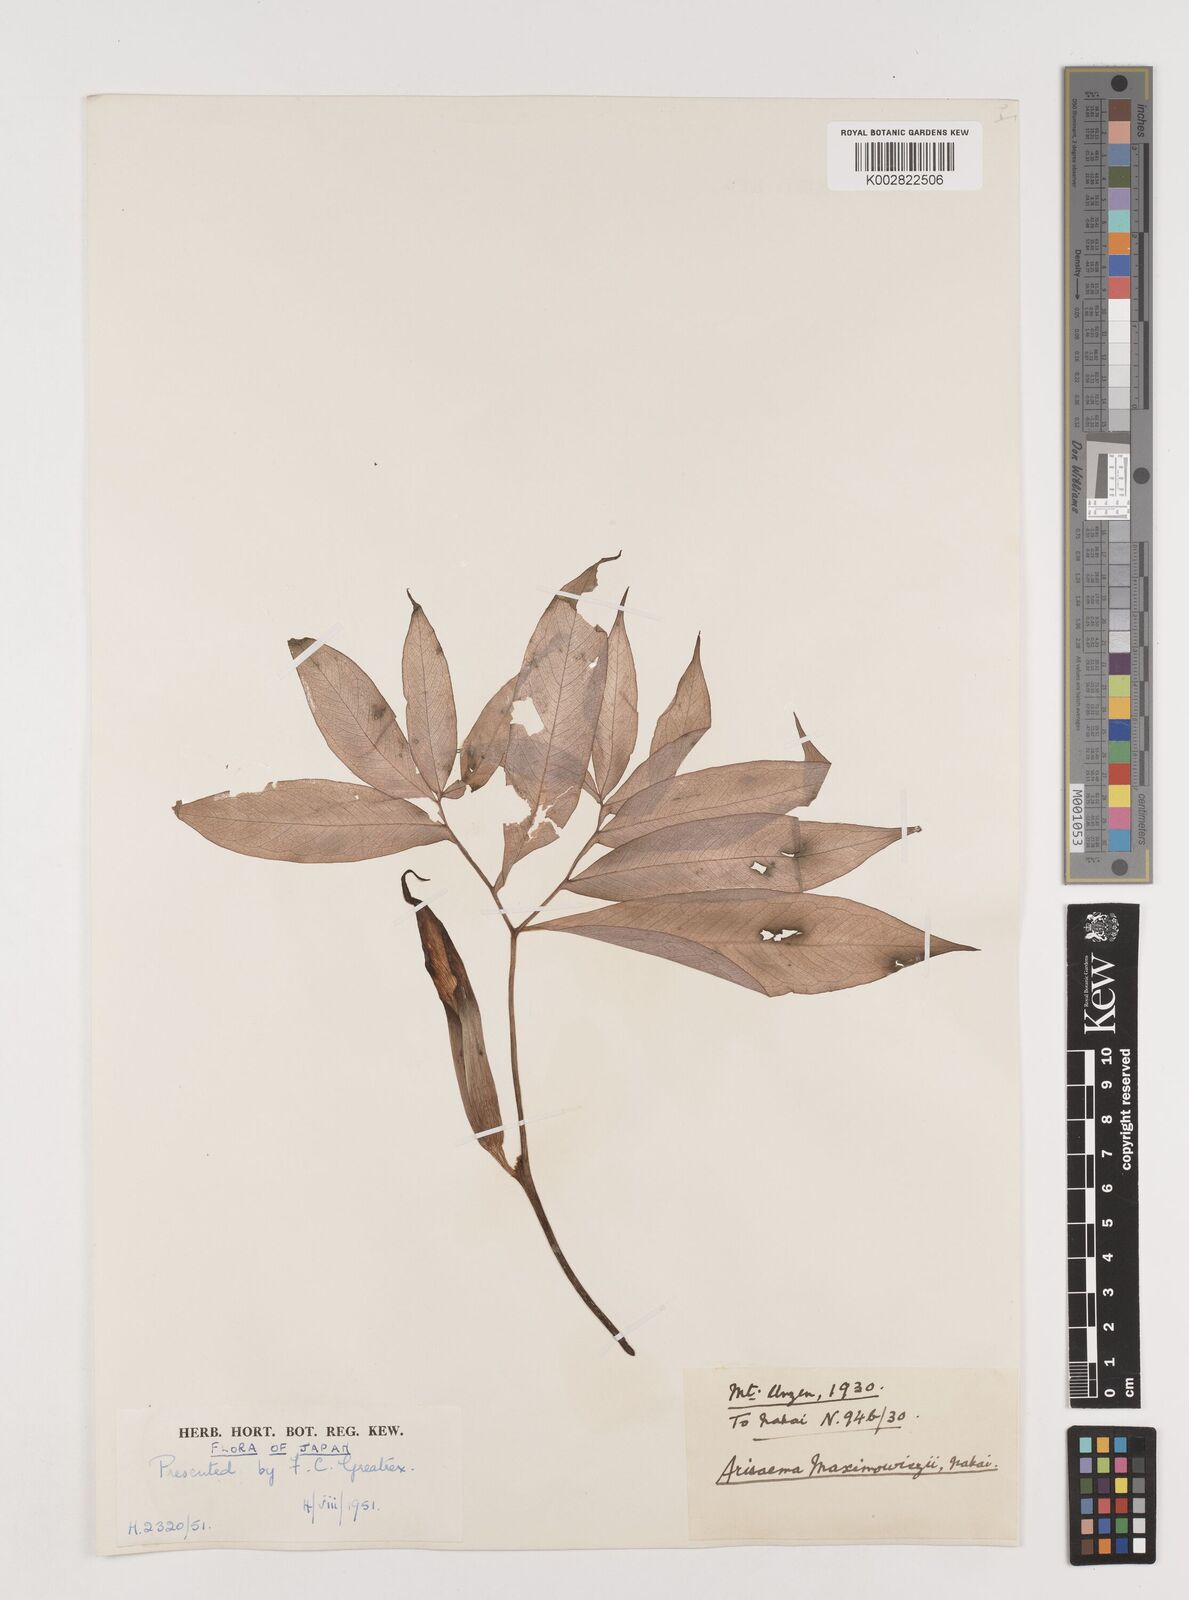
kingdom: Plantae
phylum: Tracheophyta
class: Liliopsida
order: Alismatales
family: Araceae
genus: Arisaema
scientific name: Arisaema maximowiczii
